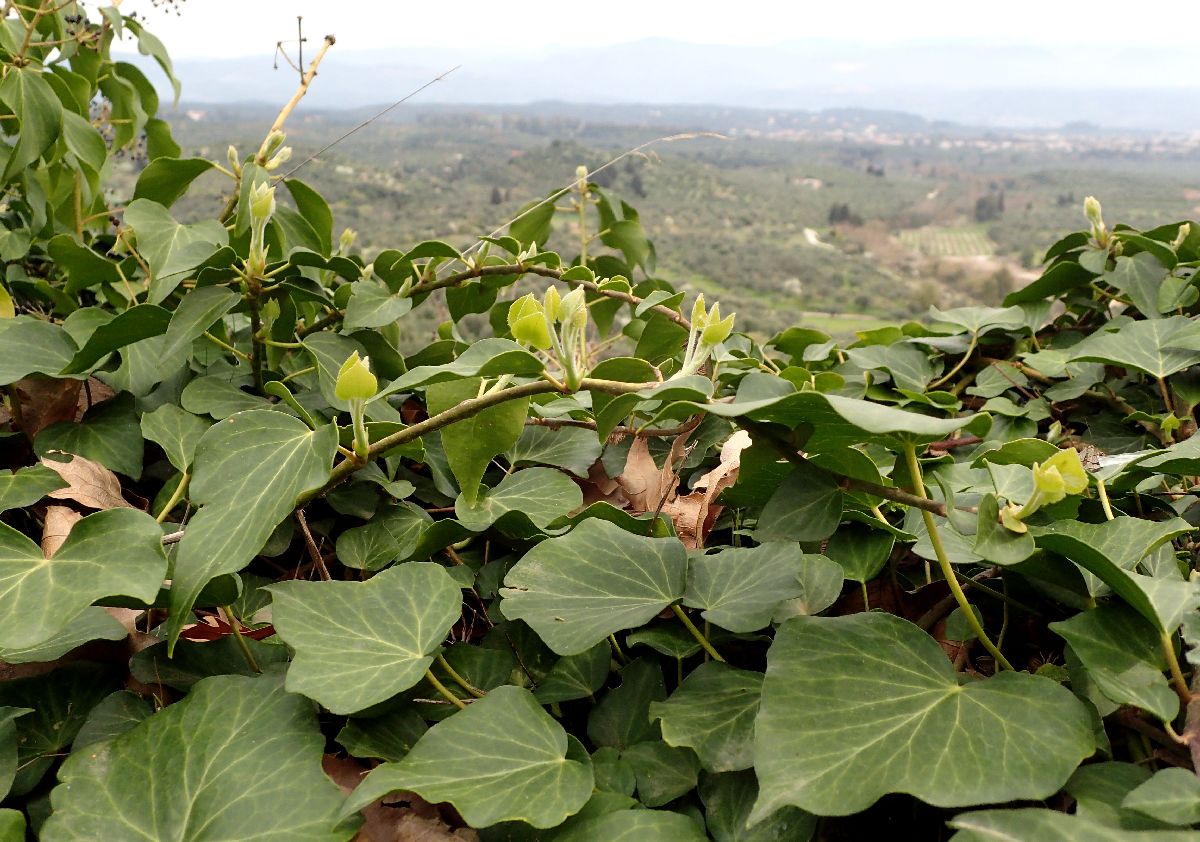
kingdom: Plantae
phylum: Tracheophyta
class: Magnoliopsida
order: Apiales
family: Araliaceae
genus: Hedera
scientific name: Hedera helix
